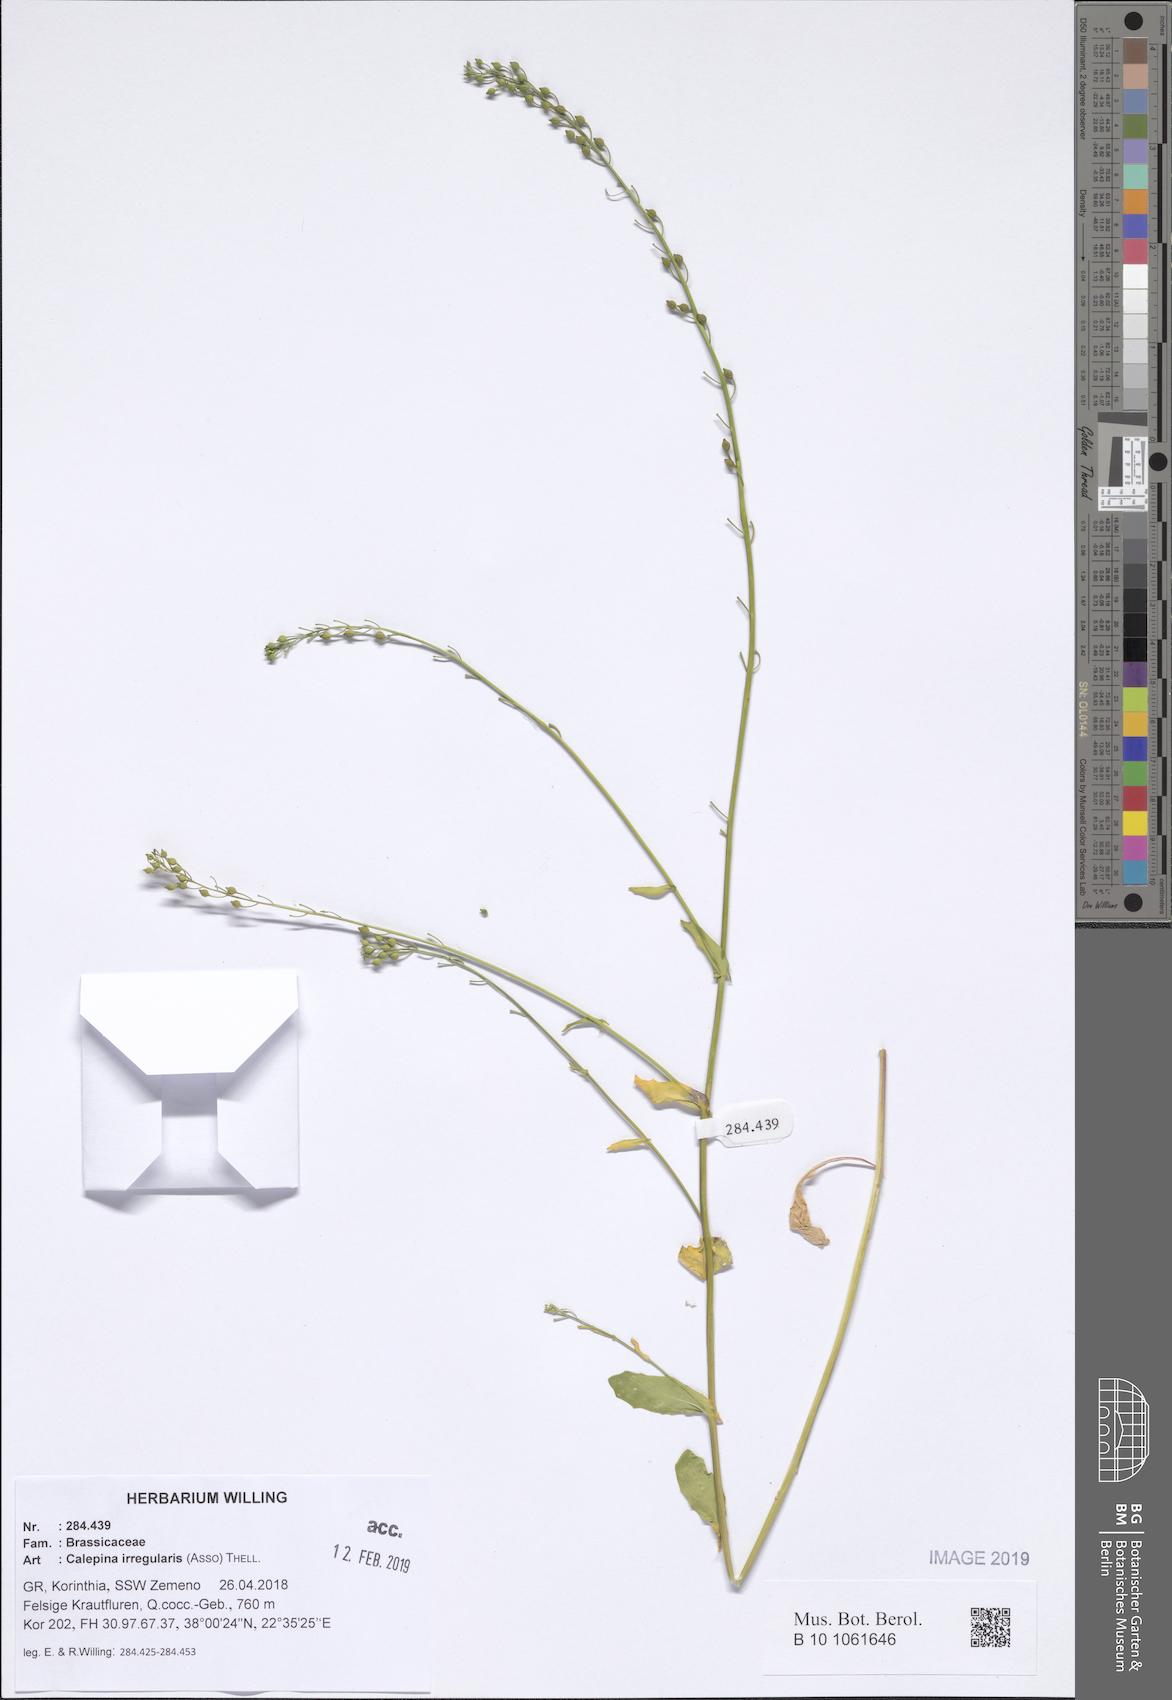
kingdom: Plantae
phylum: Tracheophyta
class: Magnoliopsida
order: Brassicales
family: Brassicaceae
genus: Calepina
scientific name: Calepina irregularis
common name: White ballmustard
